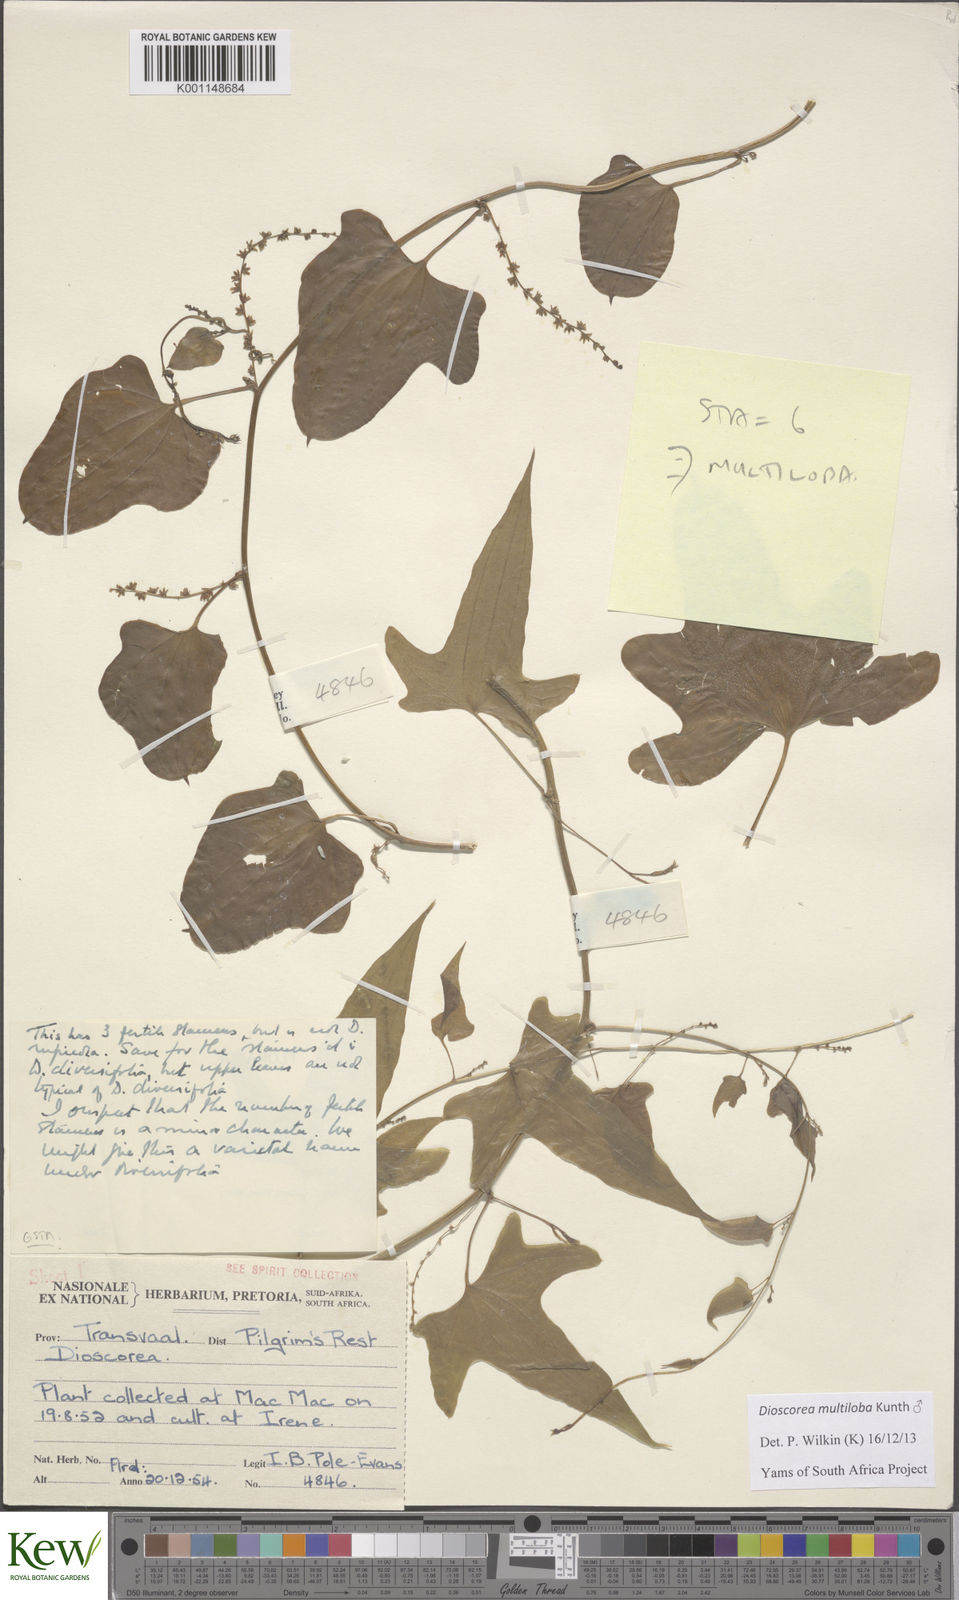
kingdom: Plantae
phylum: Tracheophyta
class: Liliopsida
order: Dioscoreales
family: Dioscoreaceae
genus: Dioscorea
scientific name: Dioscorea multiloba
